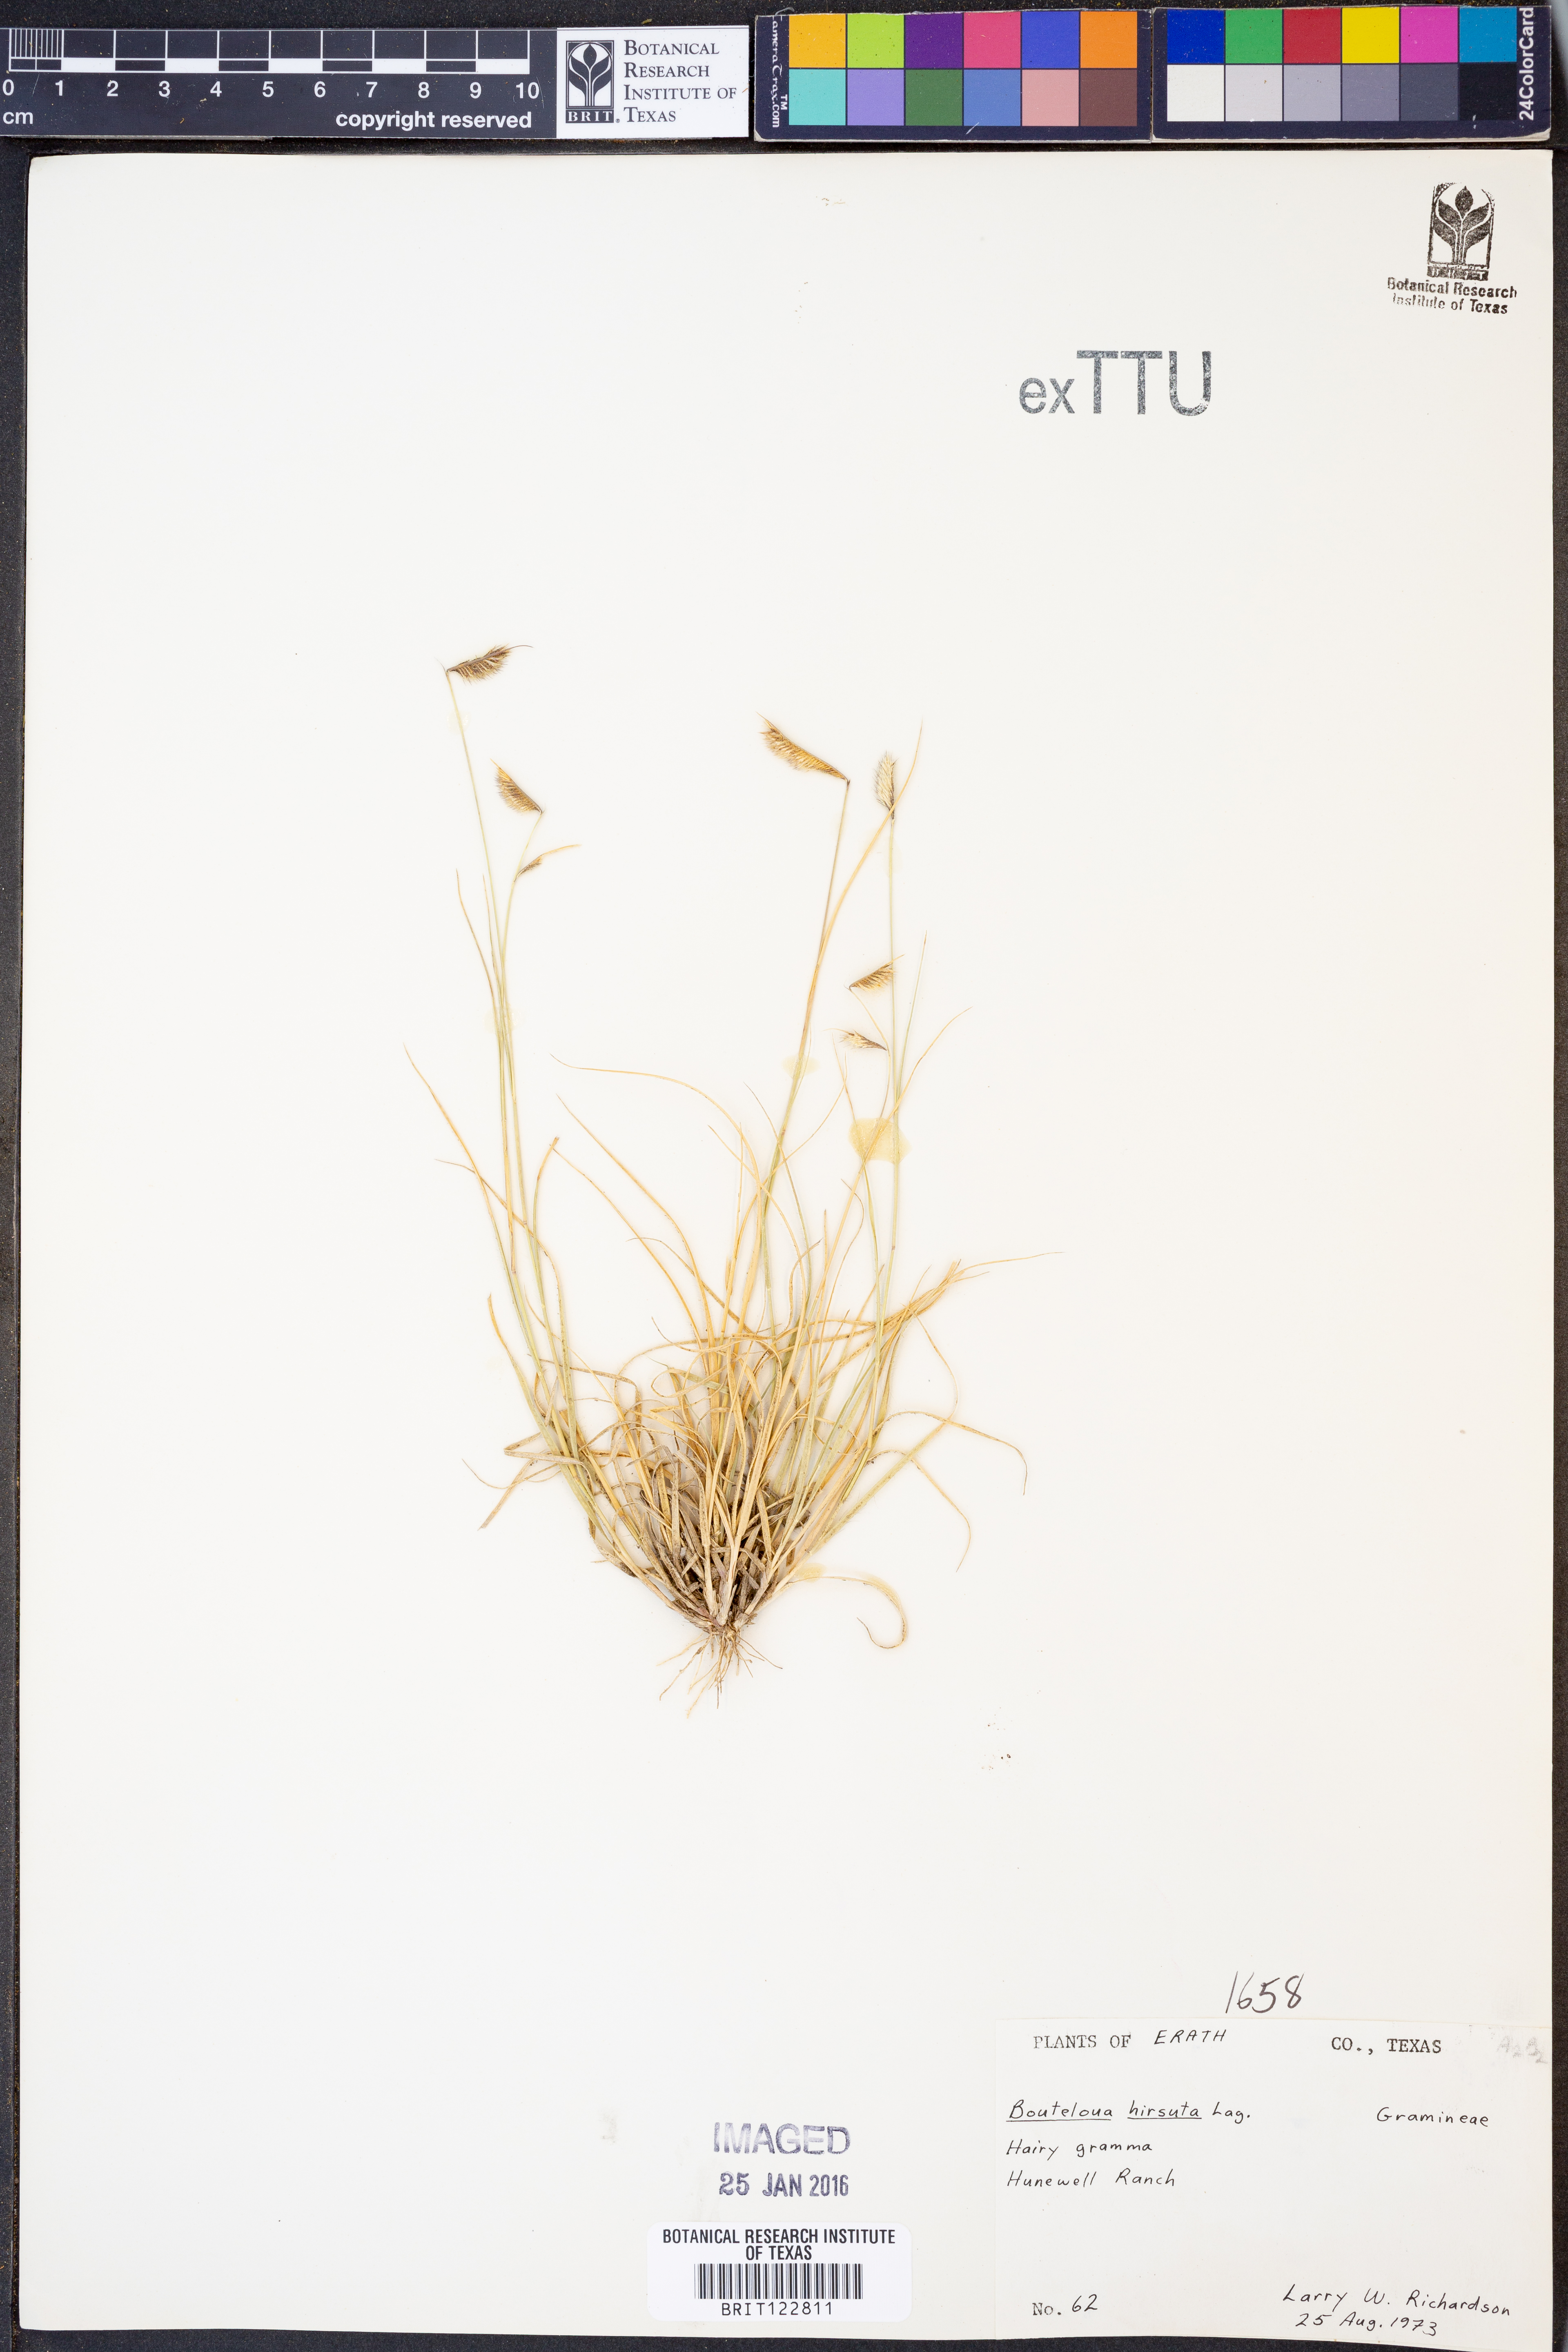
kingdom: Plantae
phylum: Tracheophyta
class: Liliopsida
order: Poales
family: Poaceae
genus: Bouteloua
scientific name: Bouteloua hirsuta
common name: Hairy grama
